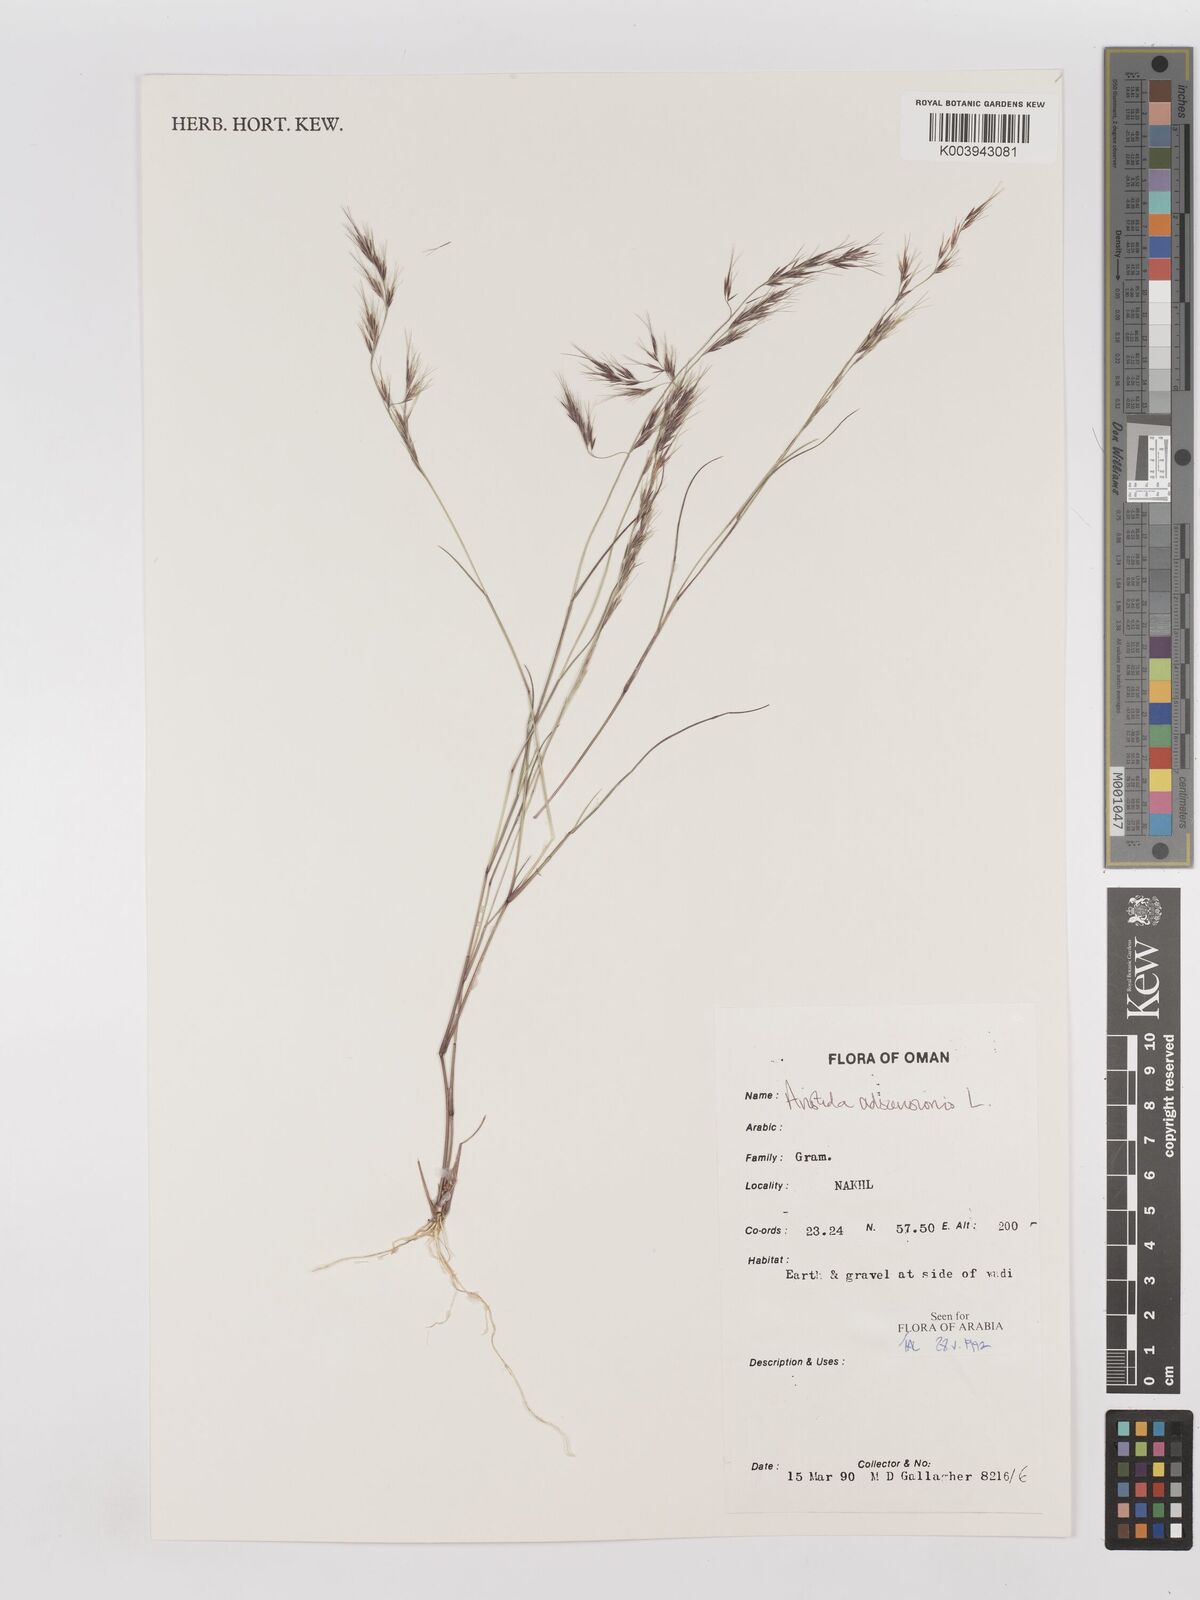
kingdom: Plantae
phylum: Tracheophyta
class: Liliopsida
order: Poales
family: Poaceae
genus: Aristida
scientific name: Aristida adscensionis
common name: Sixweeks threeawn
